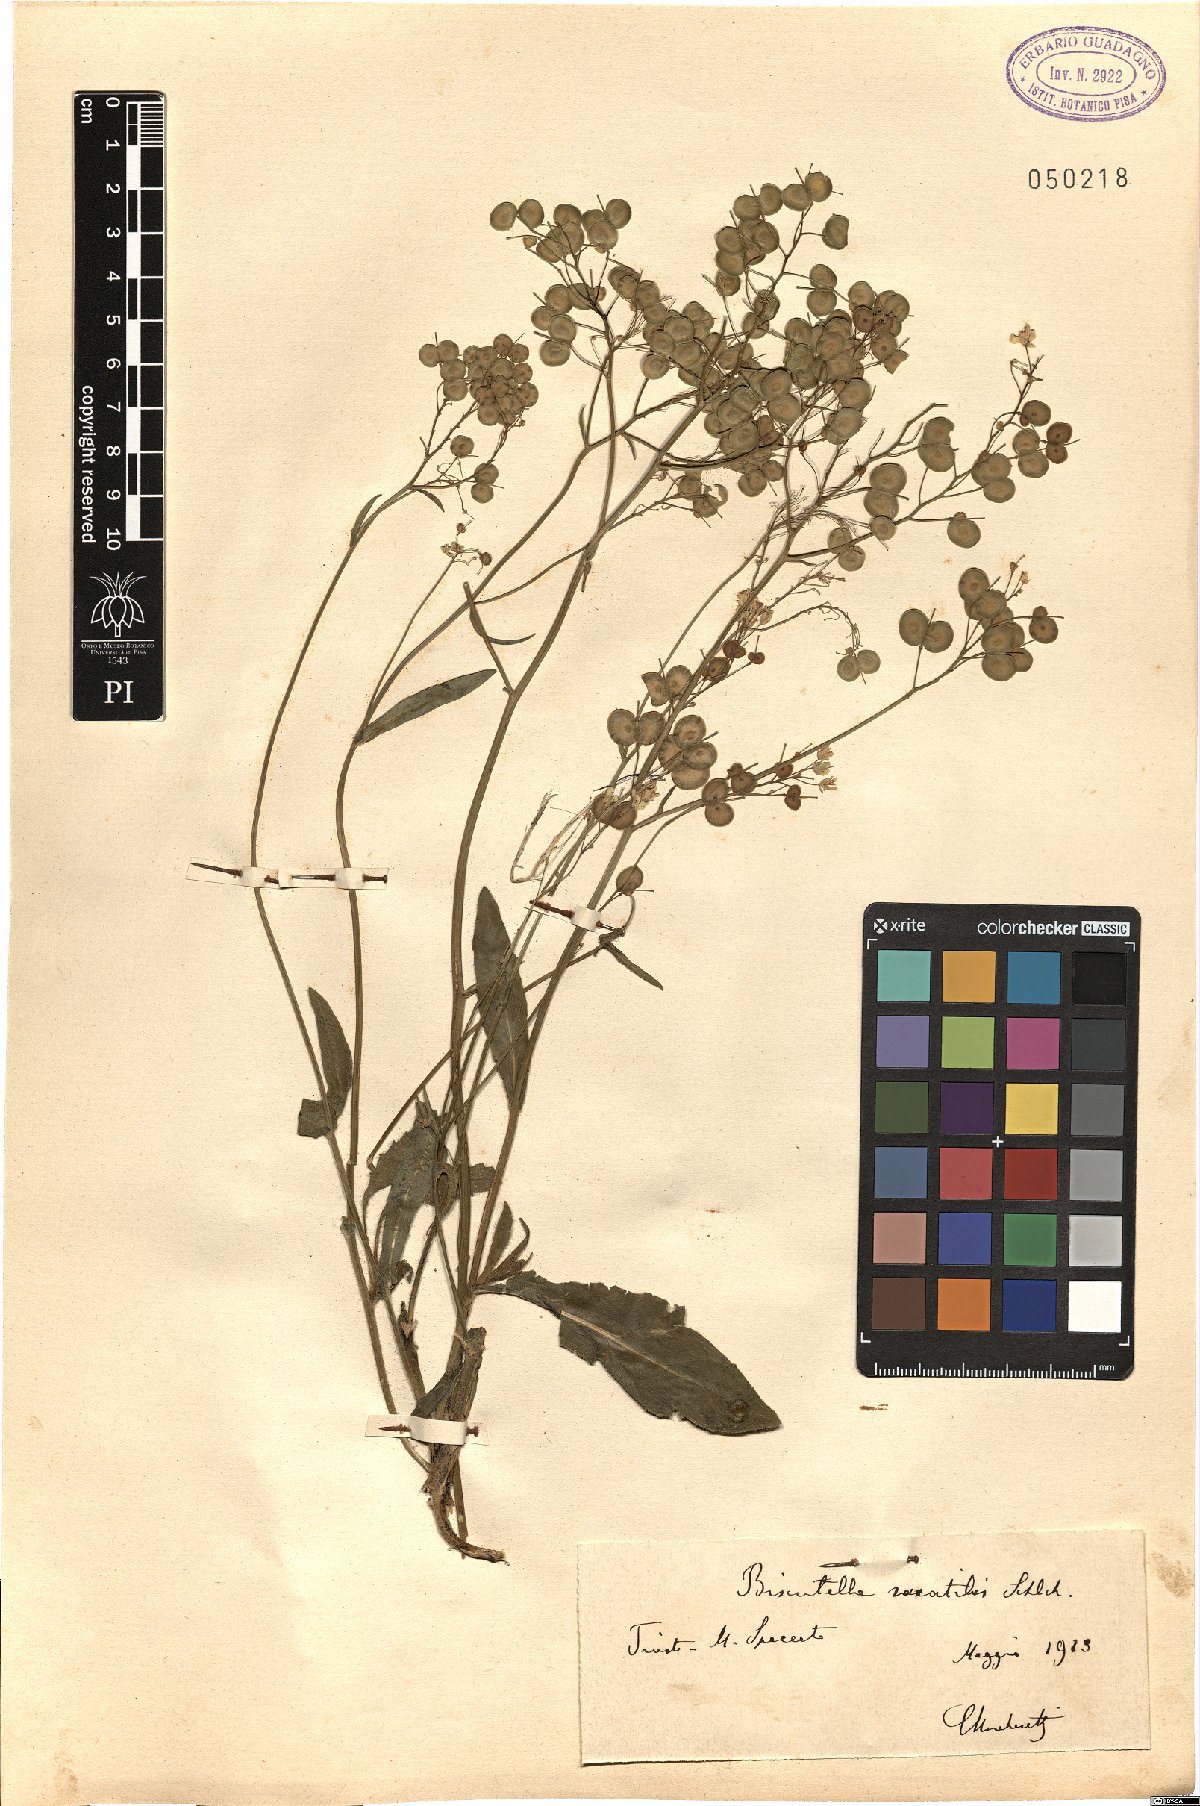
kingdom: Plantae
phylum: Tracheophyta
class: Magnoliopsida
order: Brassicales
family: Brassicaceae
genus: Biscutella
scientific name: Biscutella laevigata
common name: Buckler mustard
